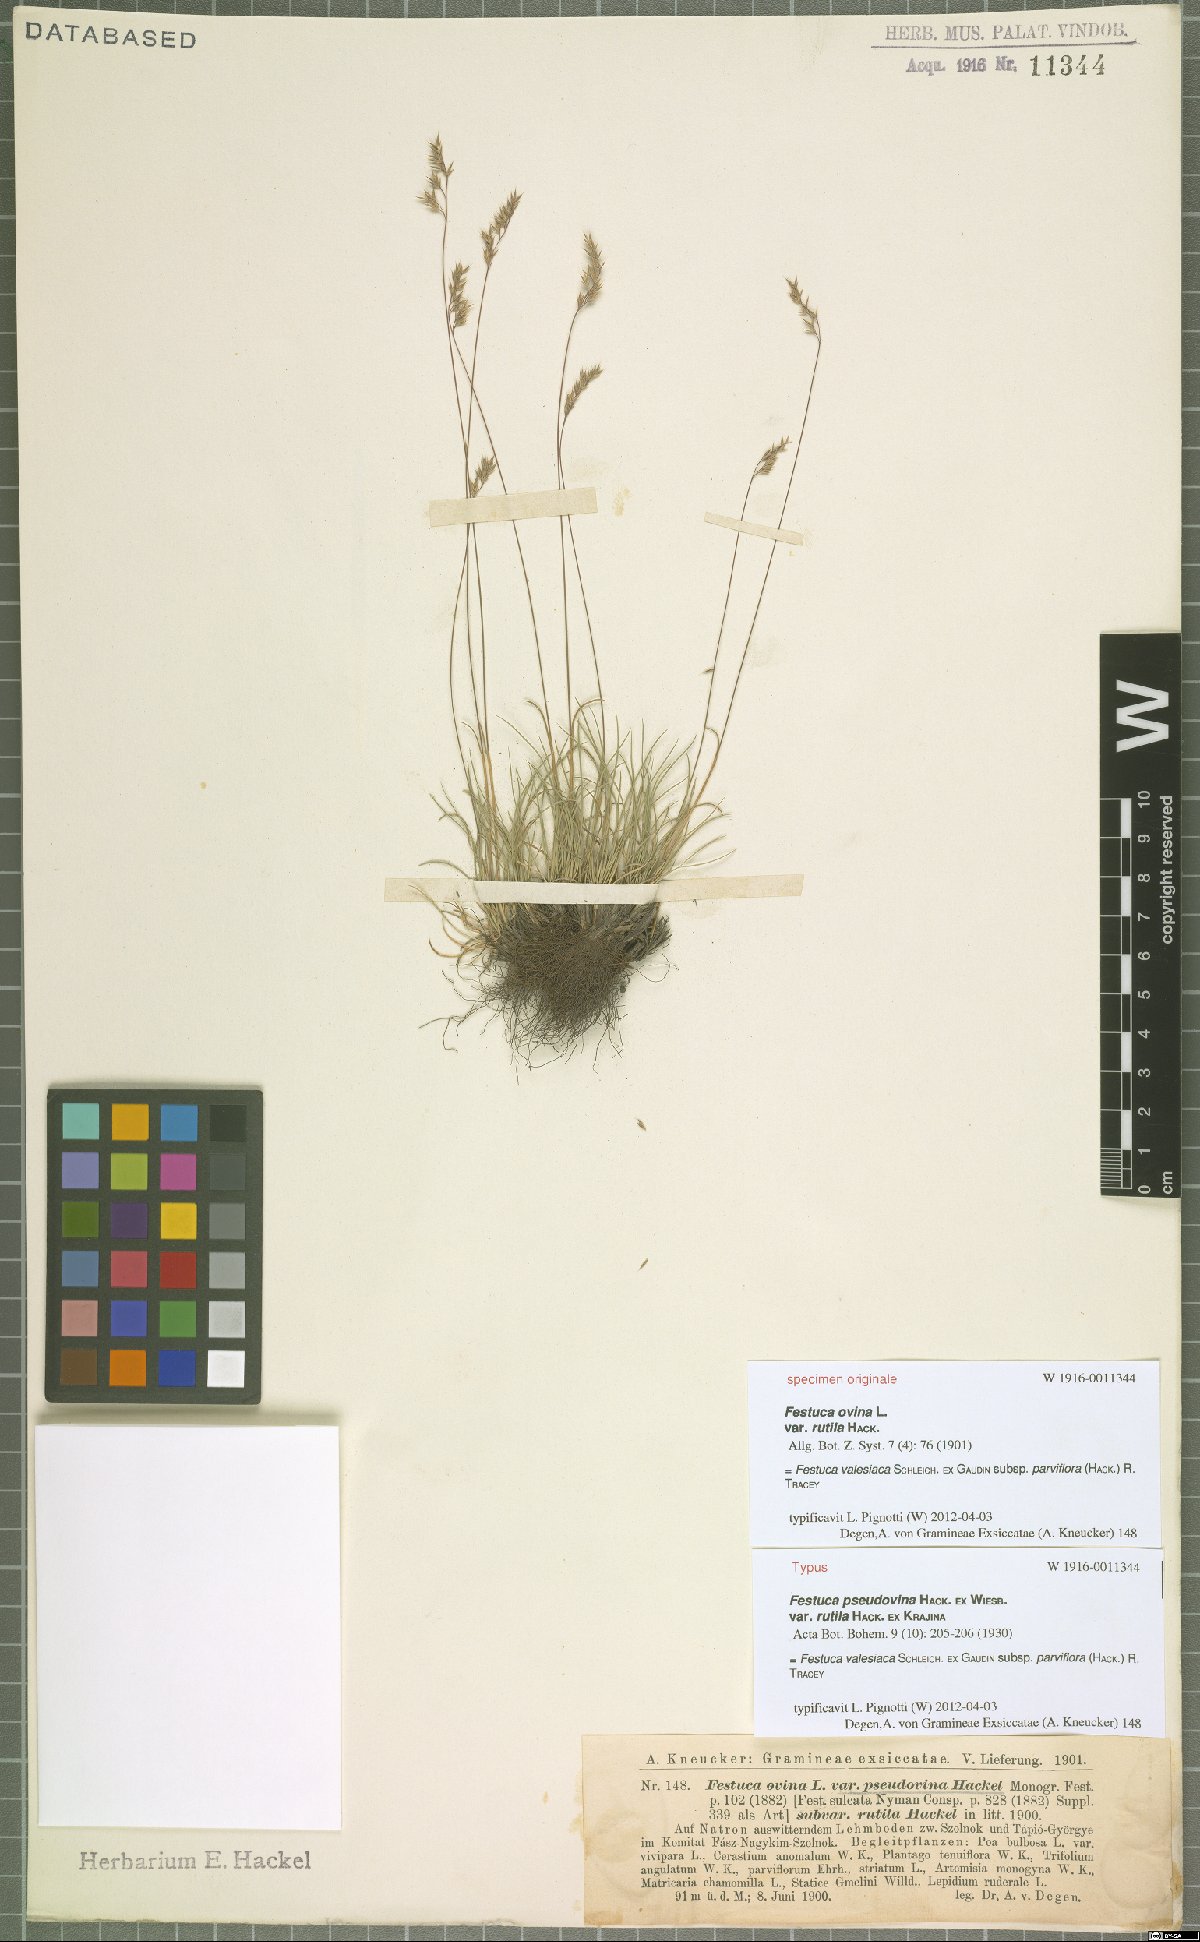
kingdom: Plantae
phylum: Tracheophyta
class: Liliopsida
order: Poales
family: Poaceae
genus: Festuca
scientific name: Festuca pulchra
